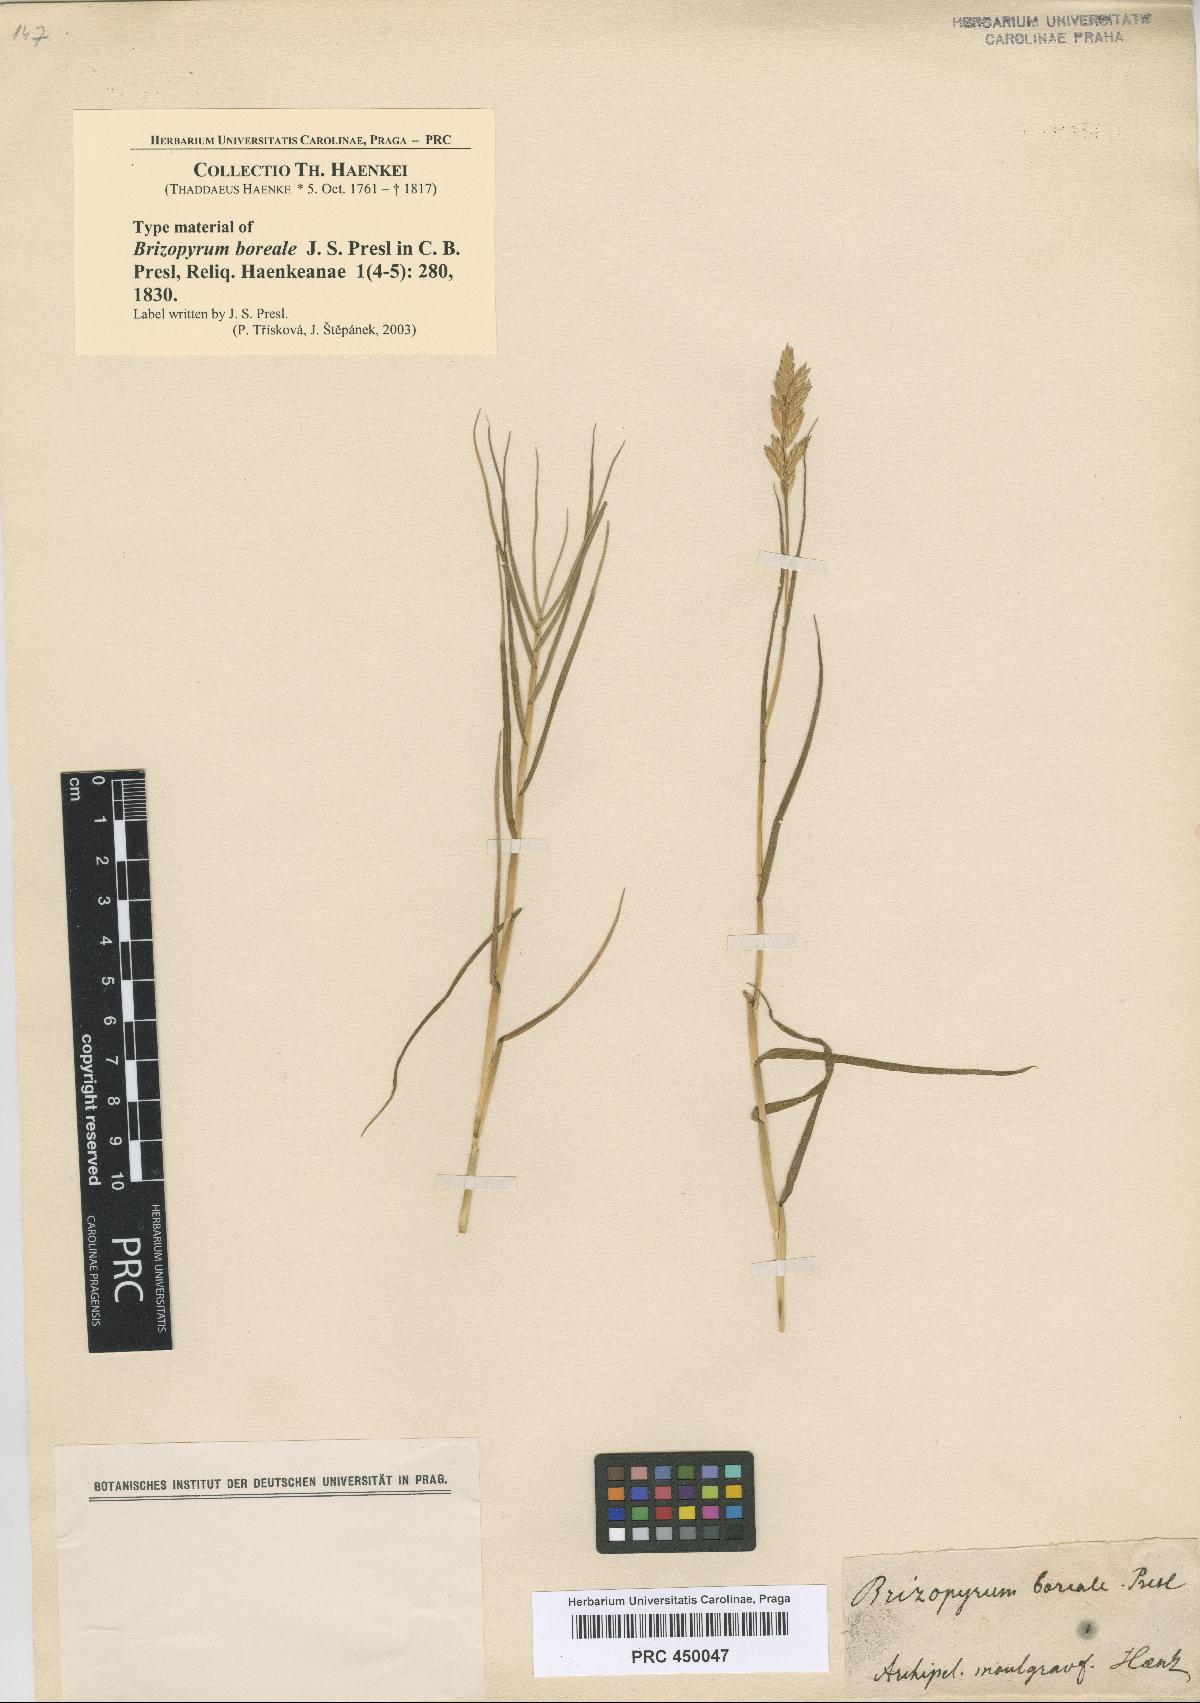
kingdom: Plantae
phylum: Tracheophyta
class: Liliopsida
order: Poales
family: Poaceae
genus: Distichlis
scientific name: Distichlis spicata
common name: Saltgrass
